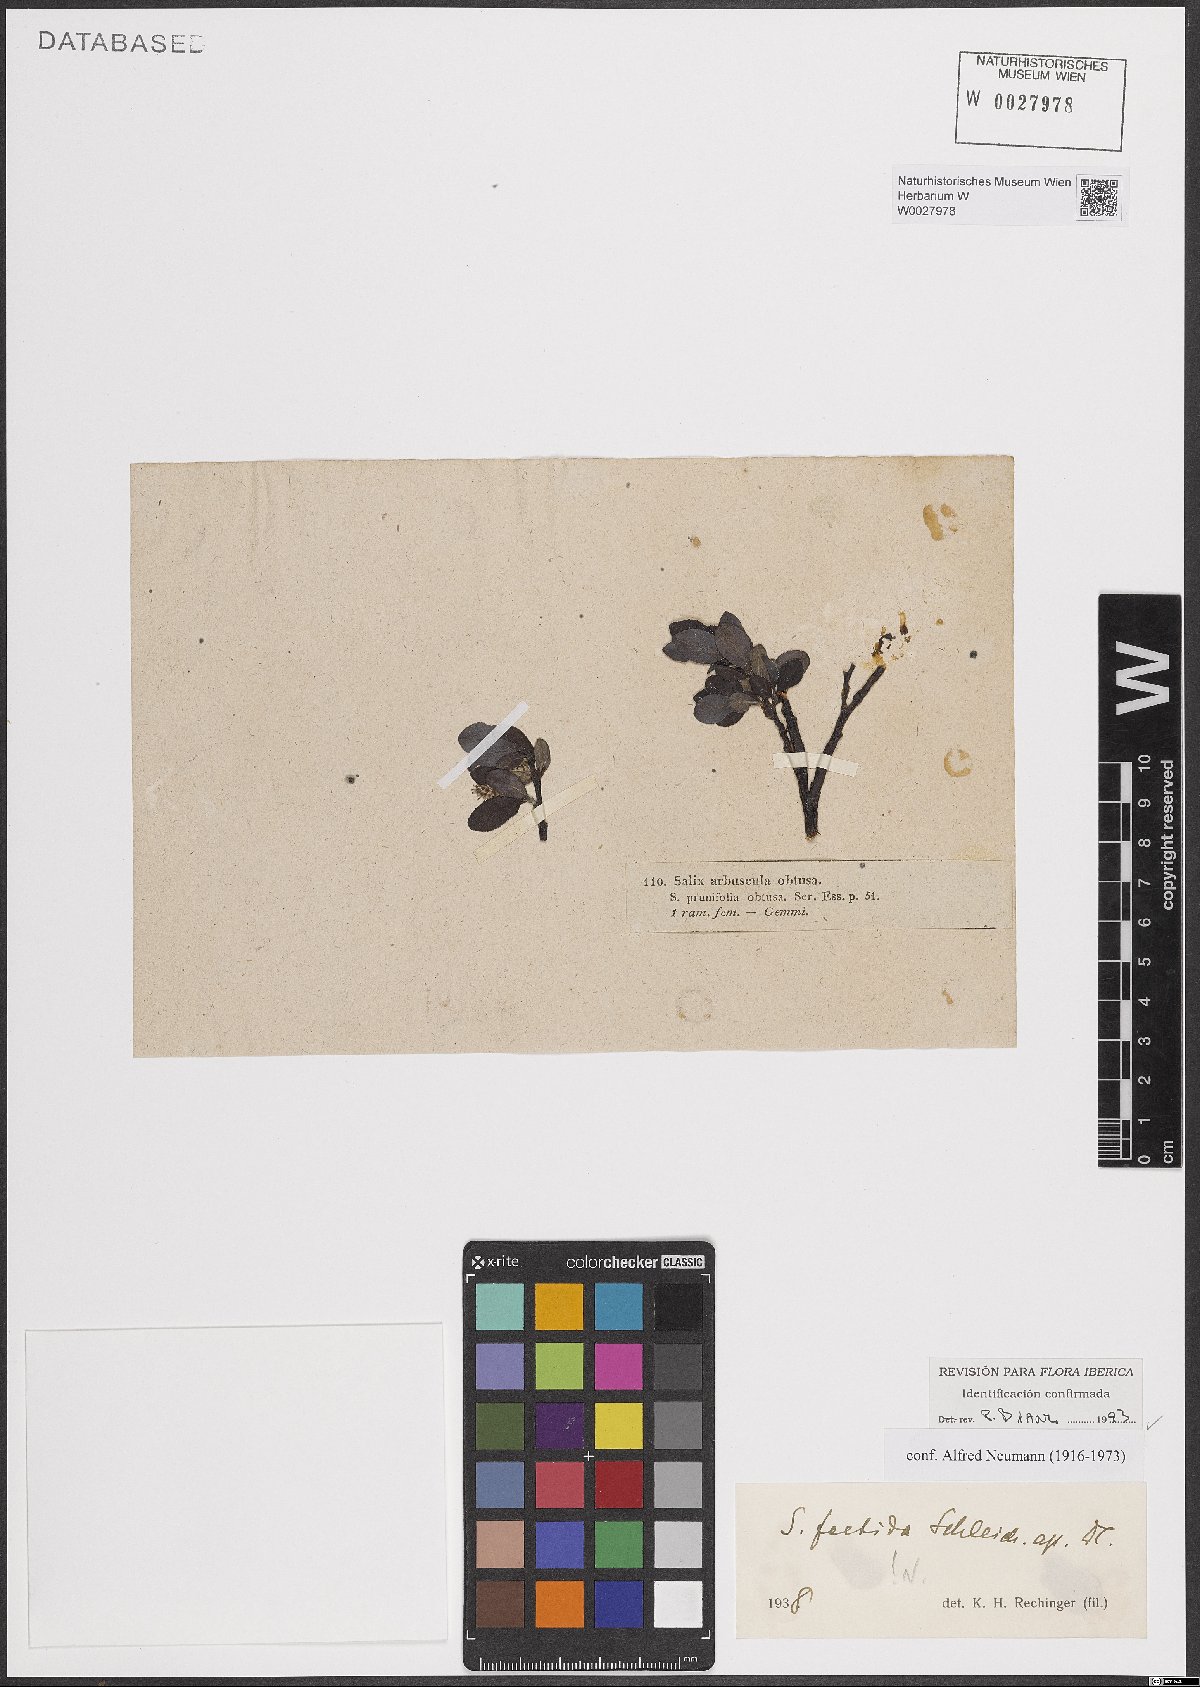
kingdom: Plantae
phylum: Tracheophyta
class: Magnoliopsida
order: Malpighiales
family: Salicaceae
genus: Salix
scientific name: Salix foetida
